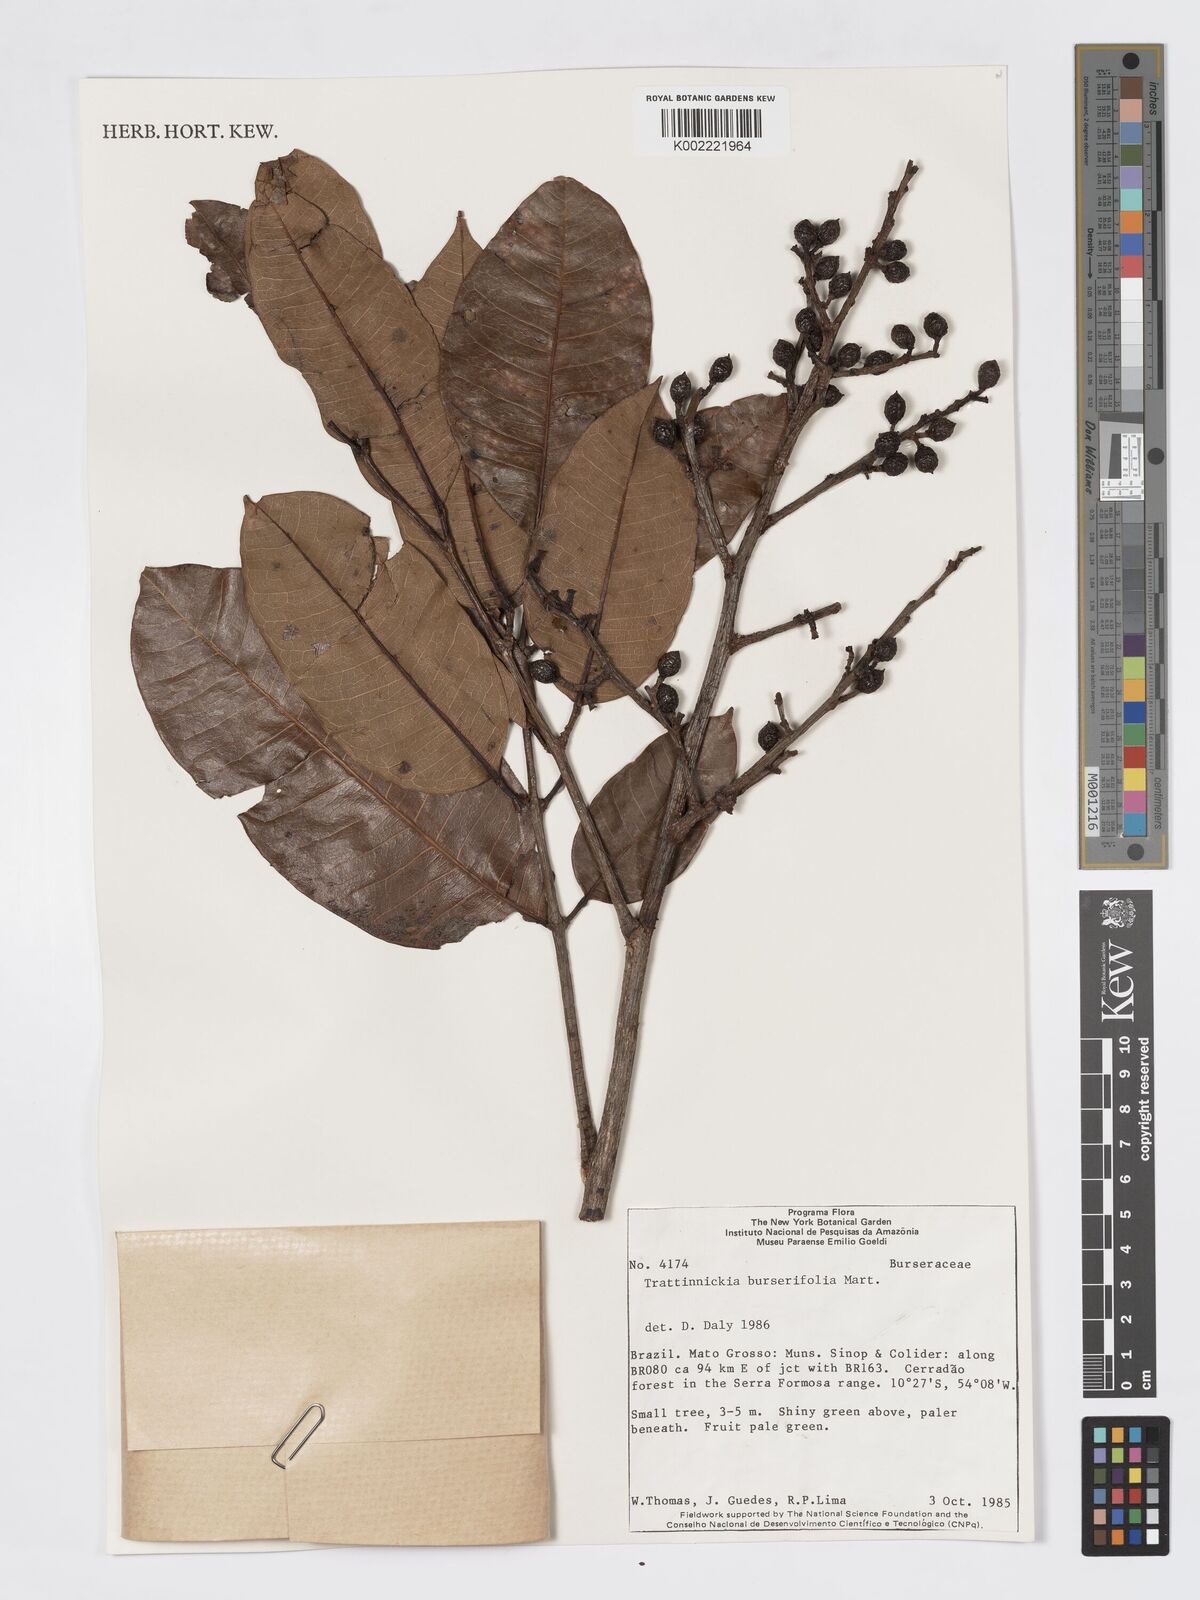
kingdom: Plantae
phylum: Tracheophyta
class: Magnoliopsida
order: Sapindales
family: Burseraceae
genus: Trattinnickia
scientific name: Trattinnickia burserifolia
